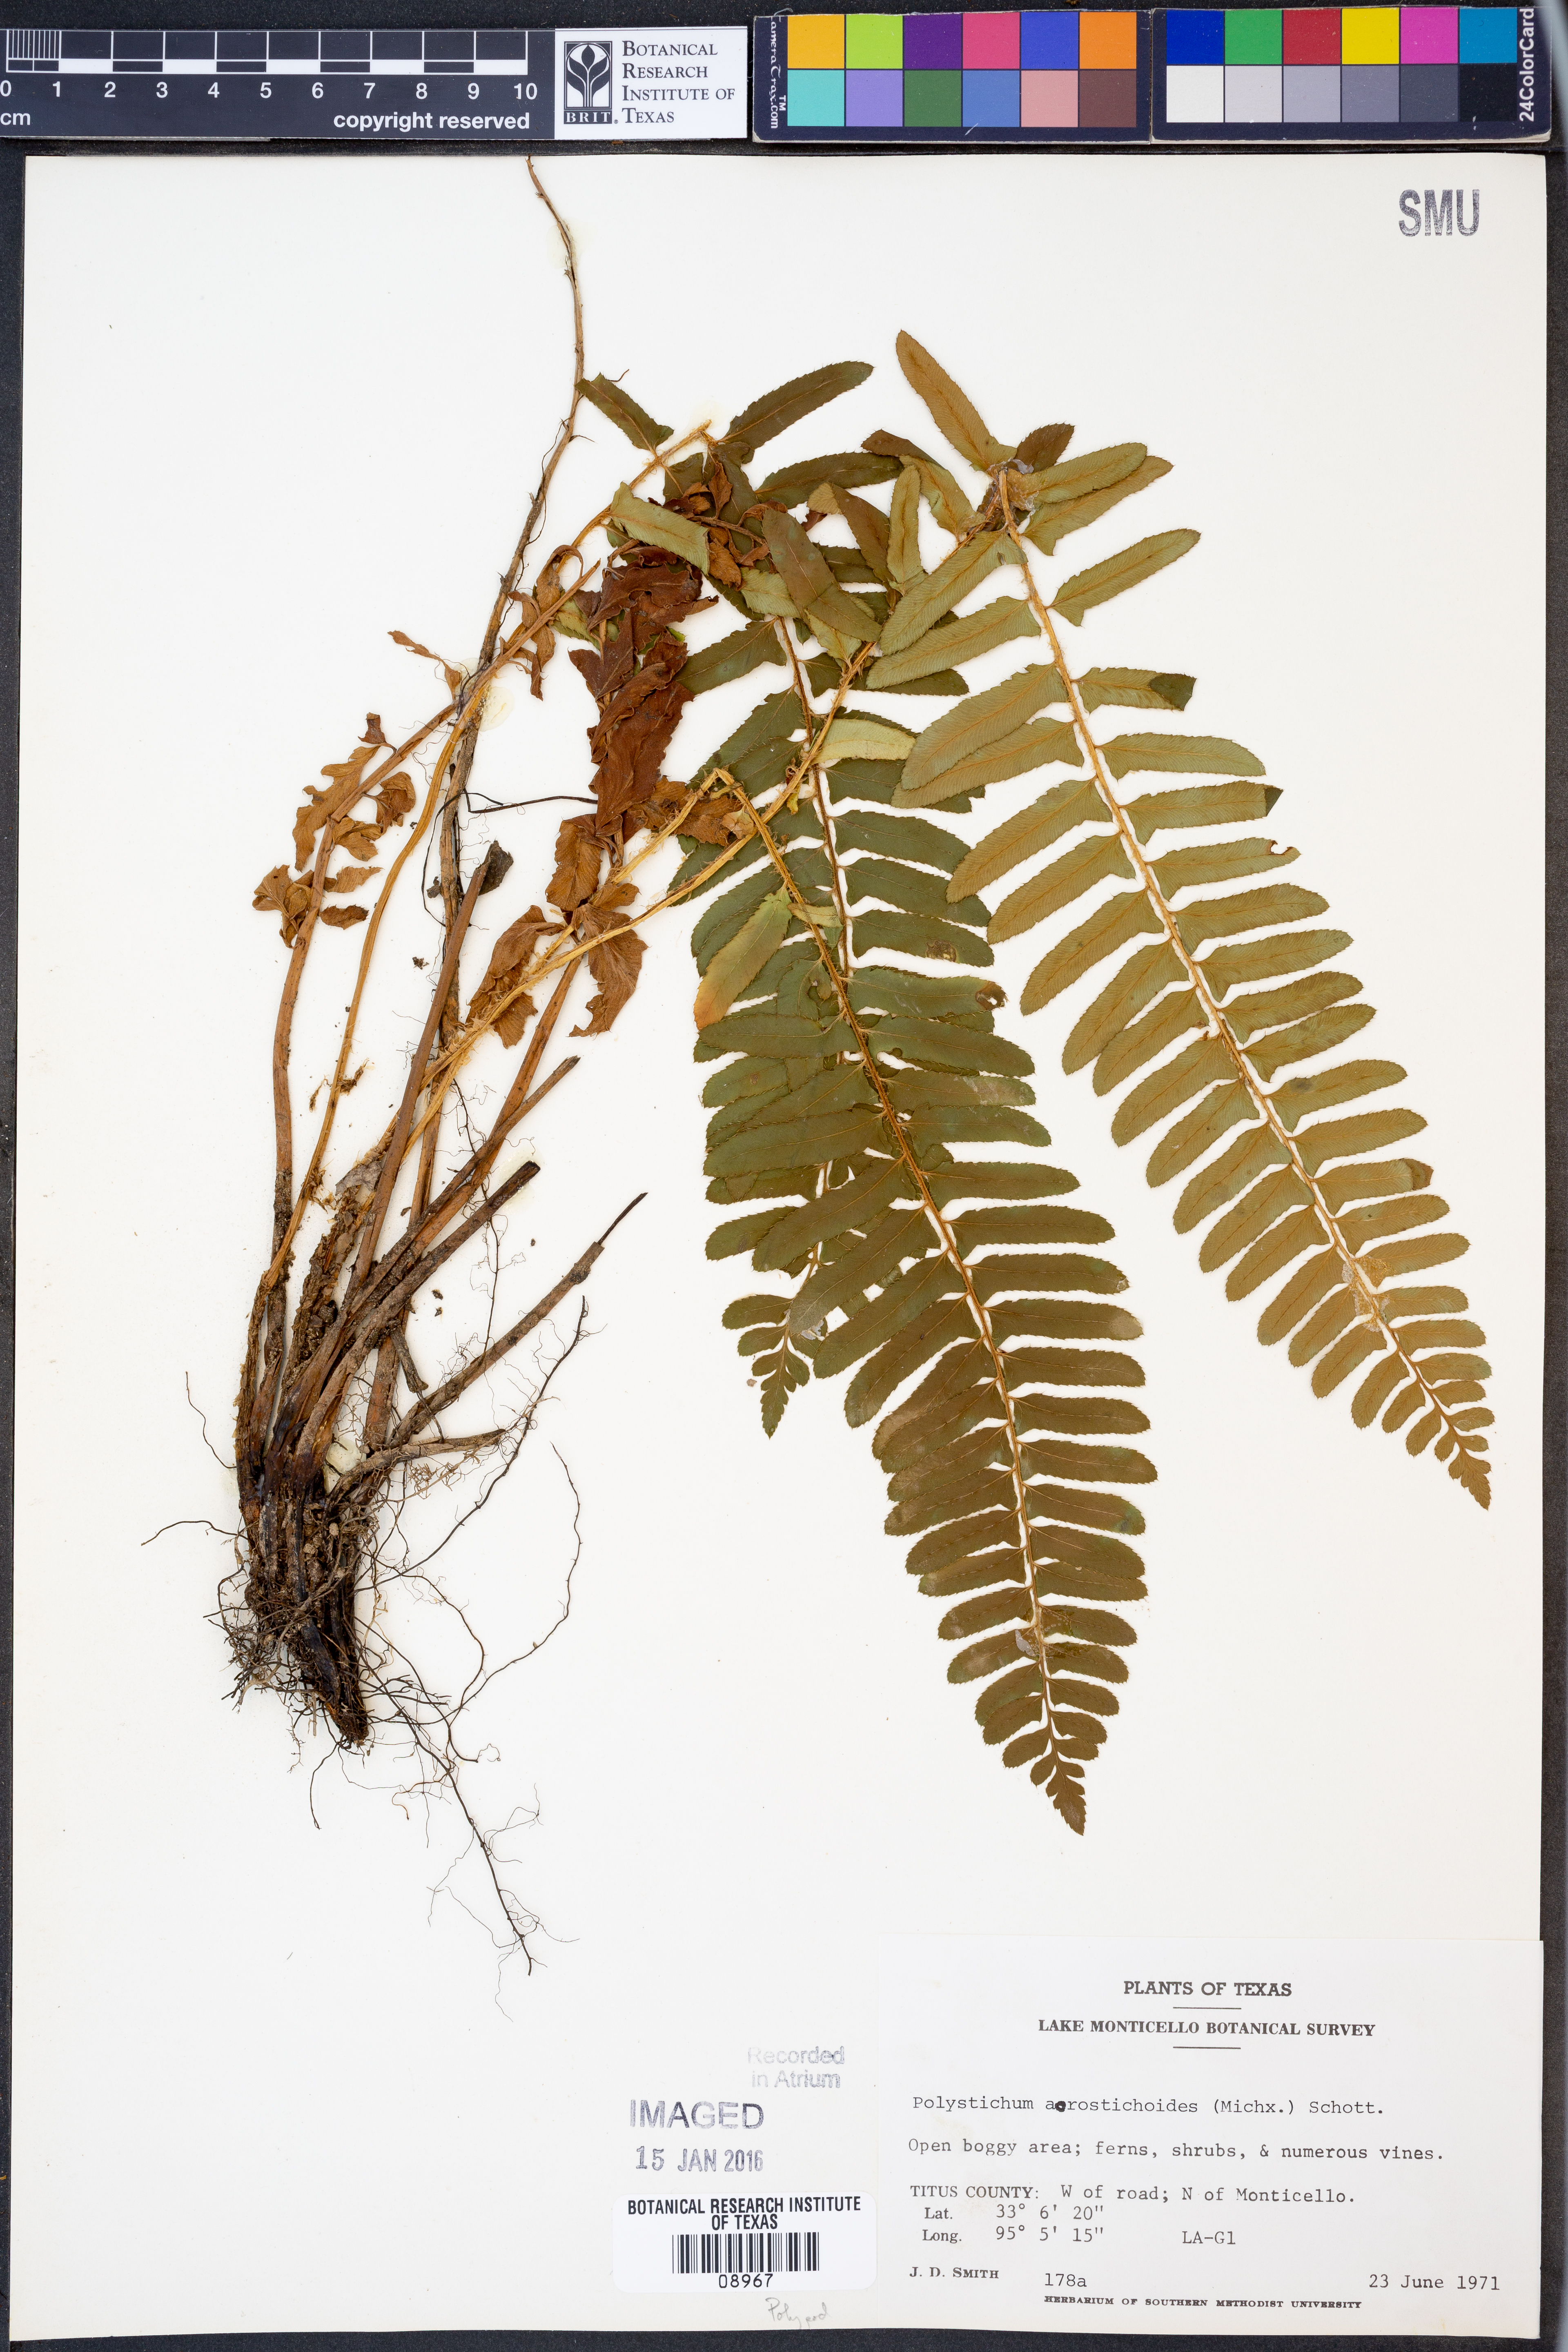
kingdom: Plantae
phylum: Tracheophyta
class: Polypodiopsida
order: Polypodiales
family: Dryopteridaceae
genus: Polystichum
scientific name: Polystichum acrostichoides
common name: Christmas fern
